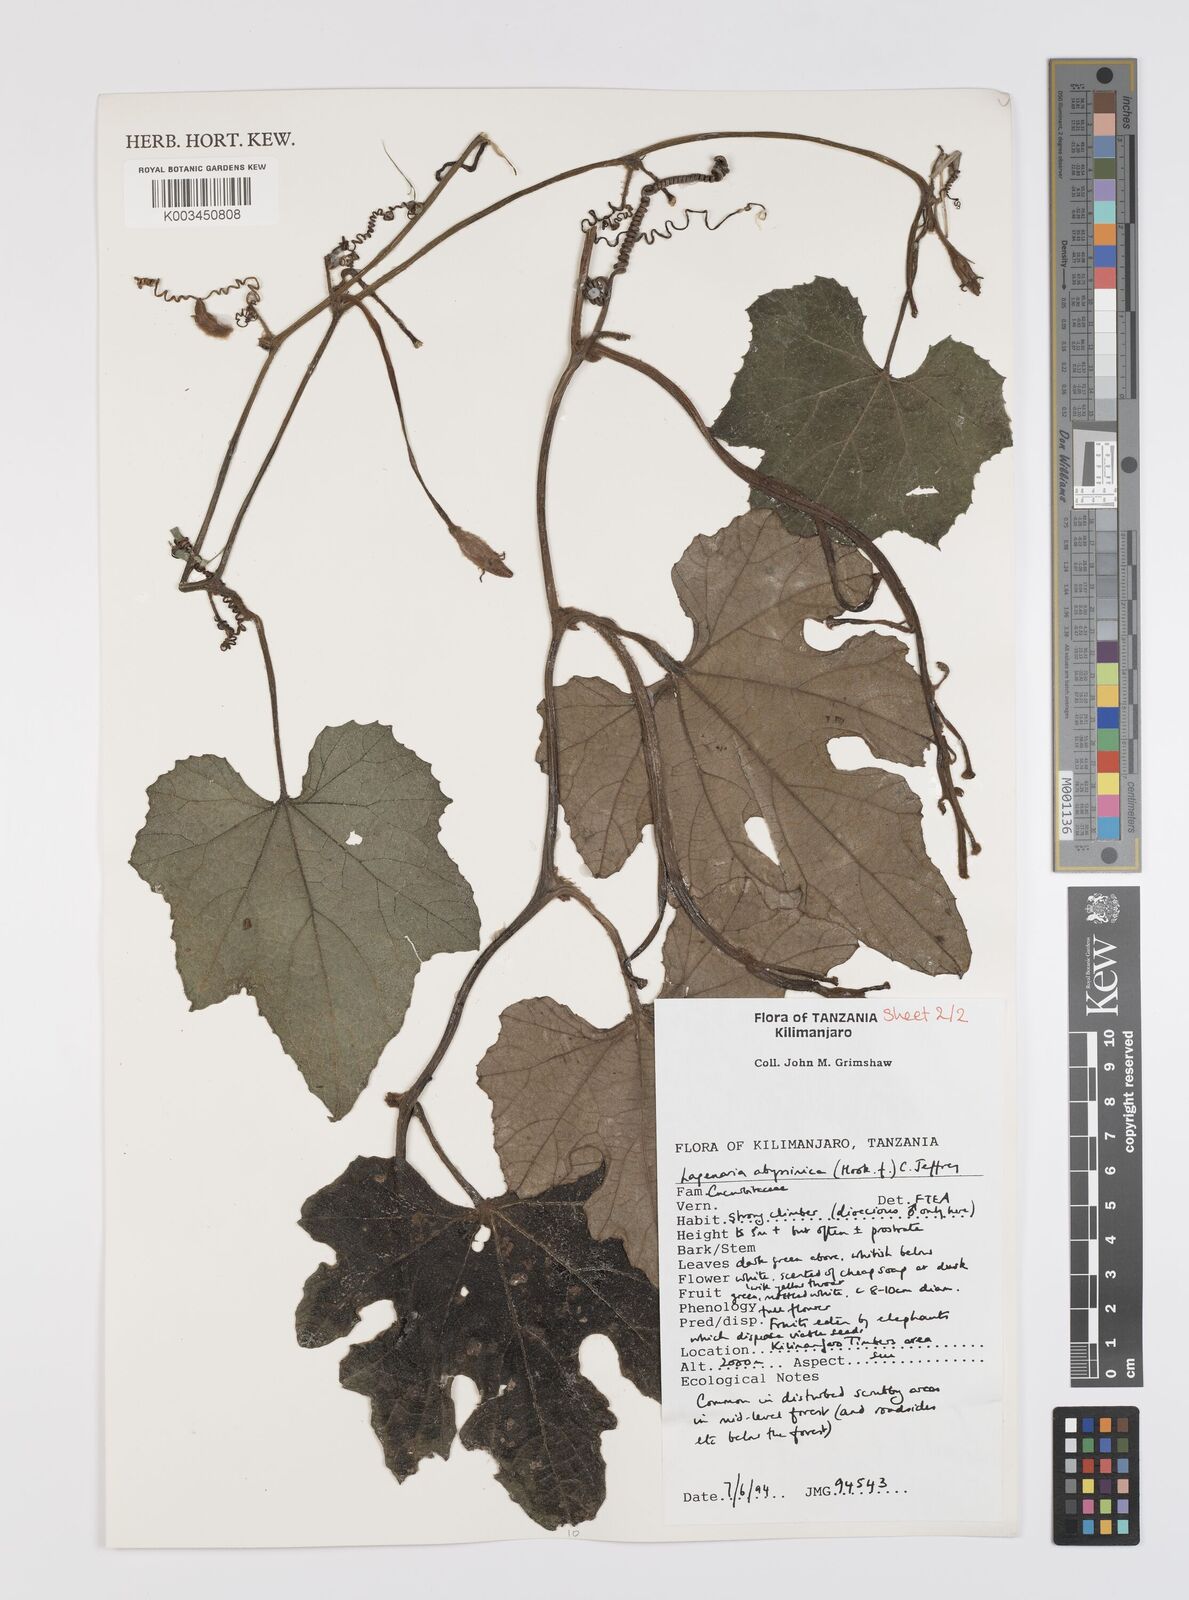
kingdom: Plantae
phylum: Tracheophyta
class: Magnoliopsida
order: Cucurbitales
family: Cucurbitaceae
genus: Lagenaria
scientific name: Lagenaria abyssinica
